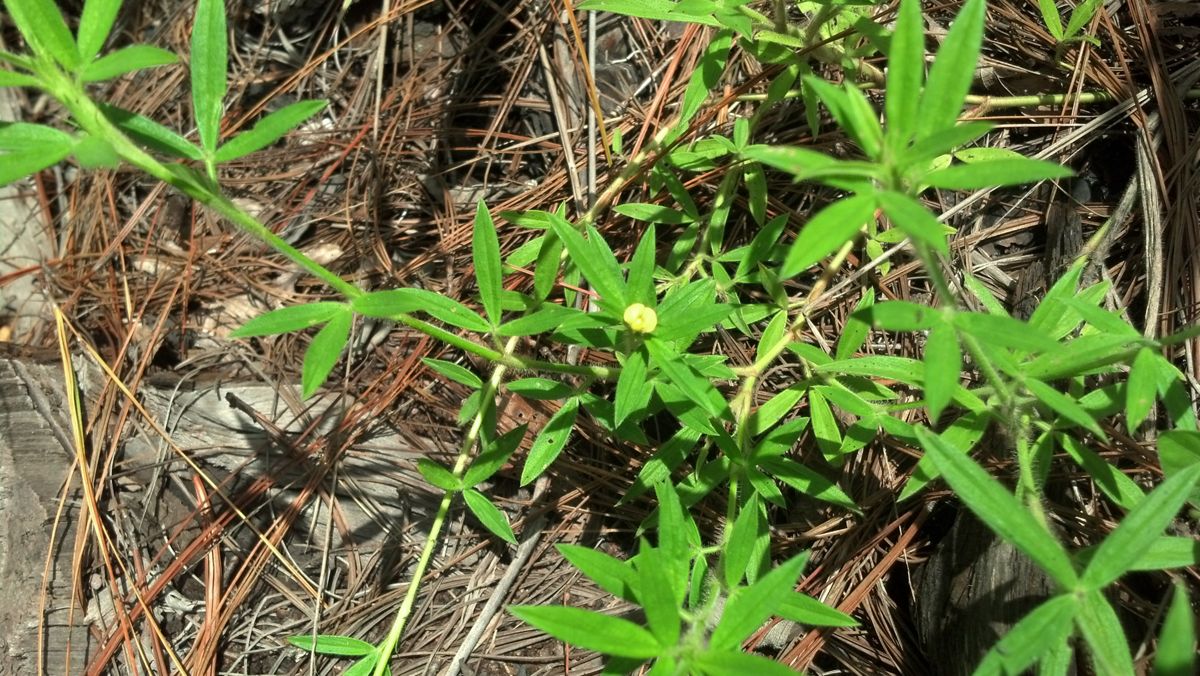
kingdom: Plantae
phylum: Tracheophyta
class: Magnoliopsida
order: Fabales
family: Fabaceae
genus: Stylosanthes
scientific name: Stylosanthes viscosa
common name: Viscid pencil-flower
